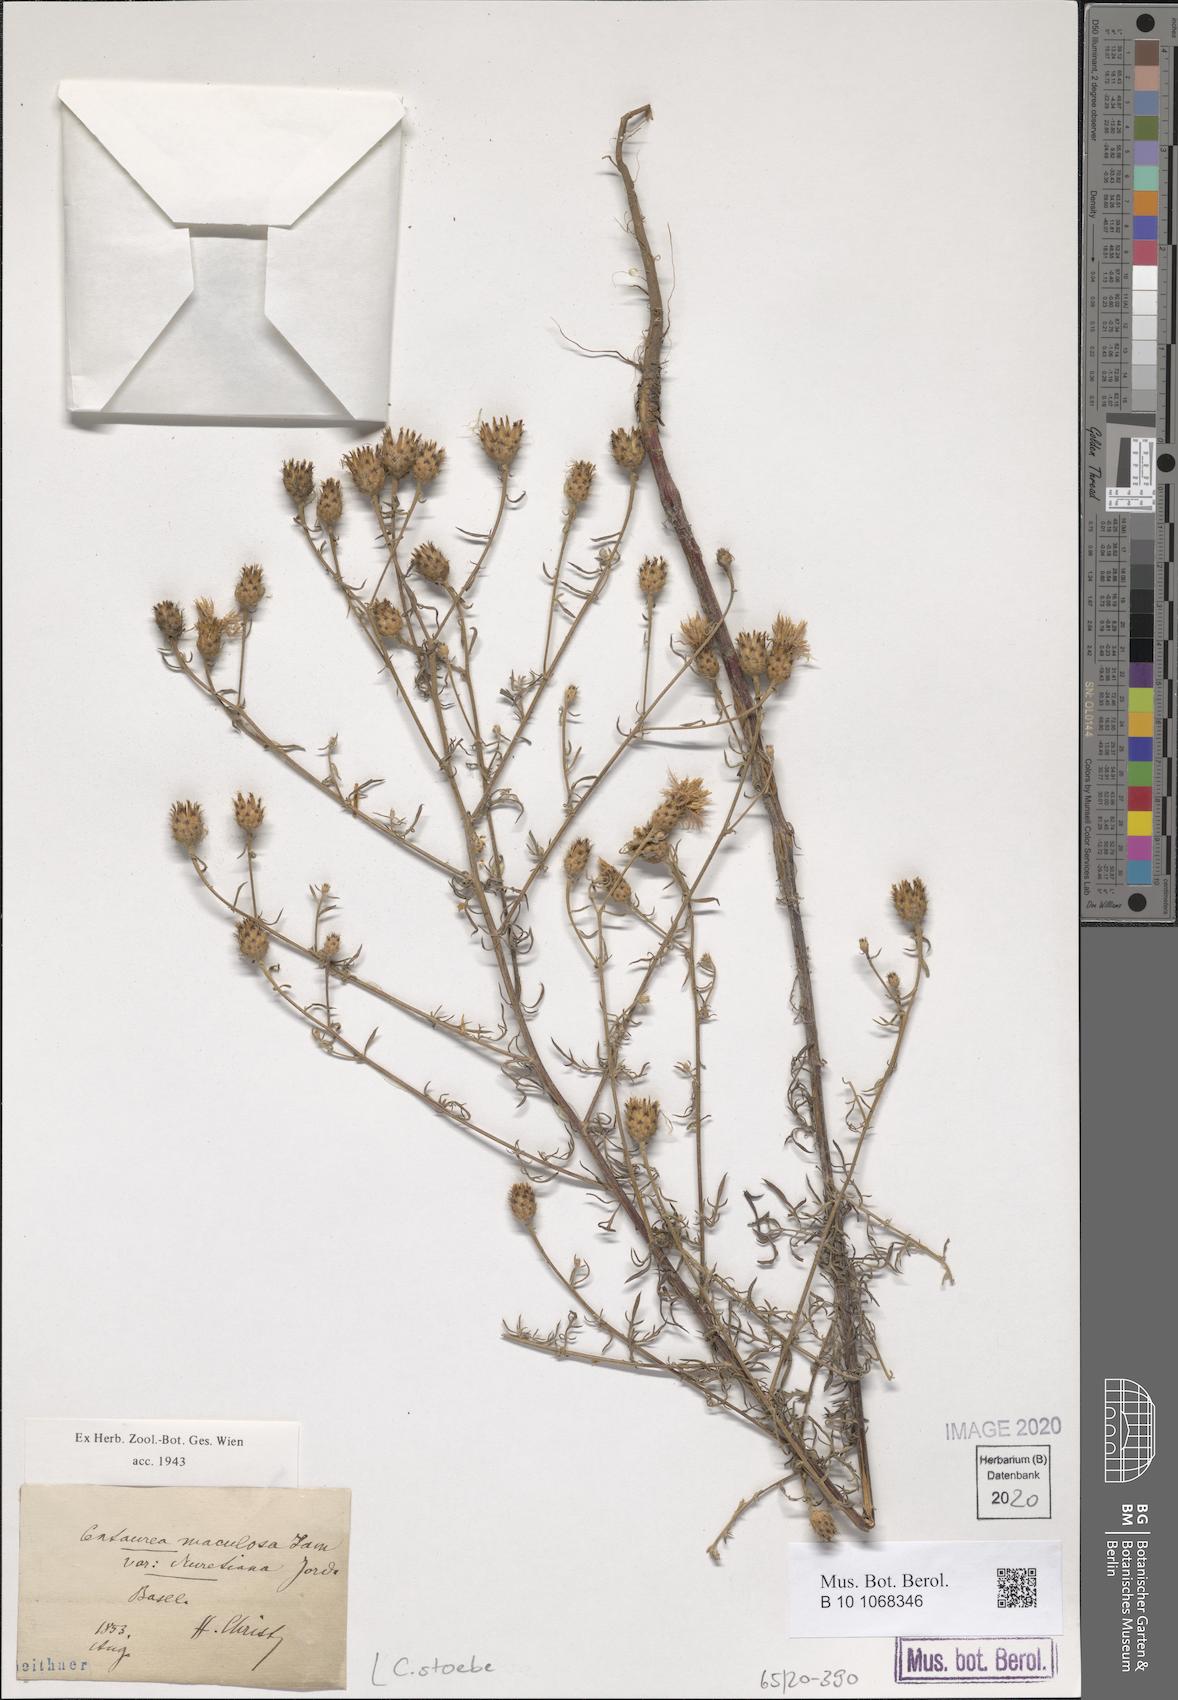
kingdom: Plantae
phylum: Tracheophyta
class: Magnoliopsida
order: Asterales
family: Asteraceae
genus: Centaurea
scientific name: Centaurea stoebe
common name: Spotted knapweed
